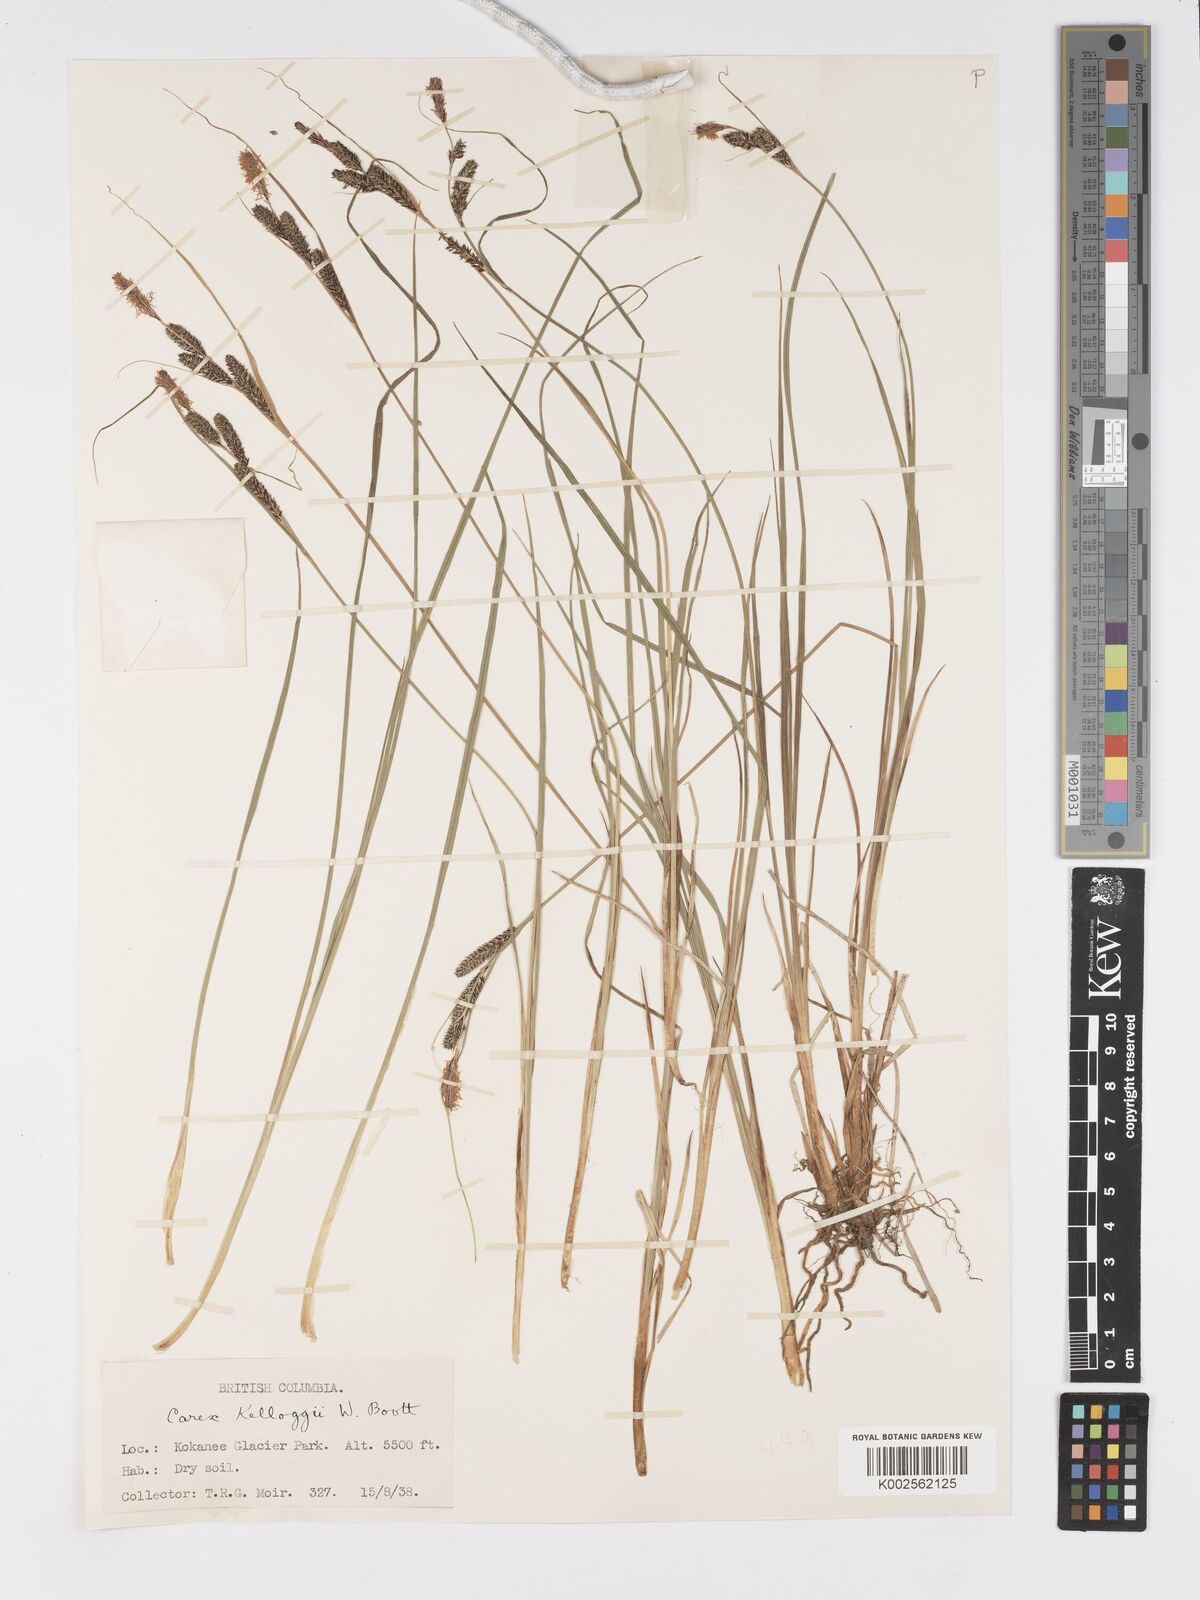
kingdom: Plantae
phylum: Tracheophyta
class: Liliopsida
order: Poales
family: Cyperaceae
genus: Carex
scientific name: Carex kelloggii
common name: Kellogg's sedge
